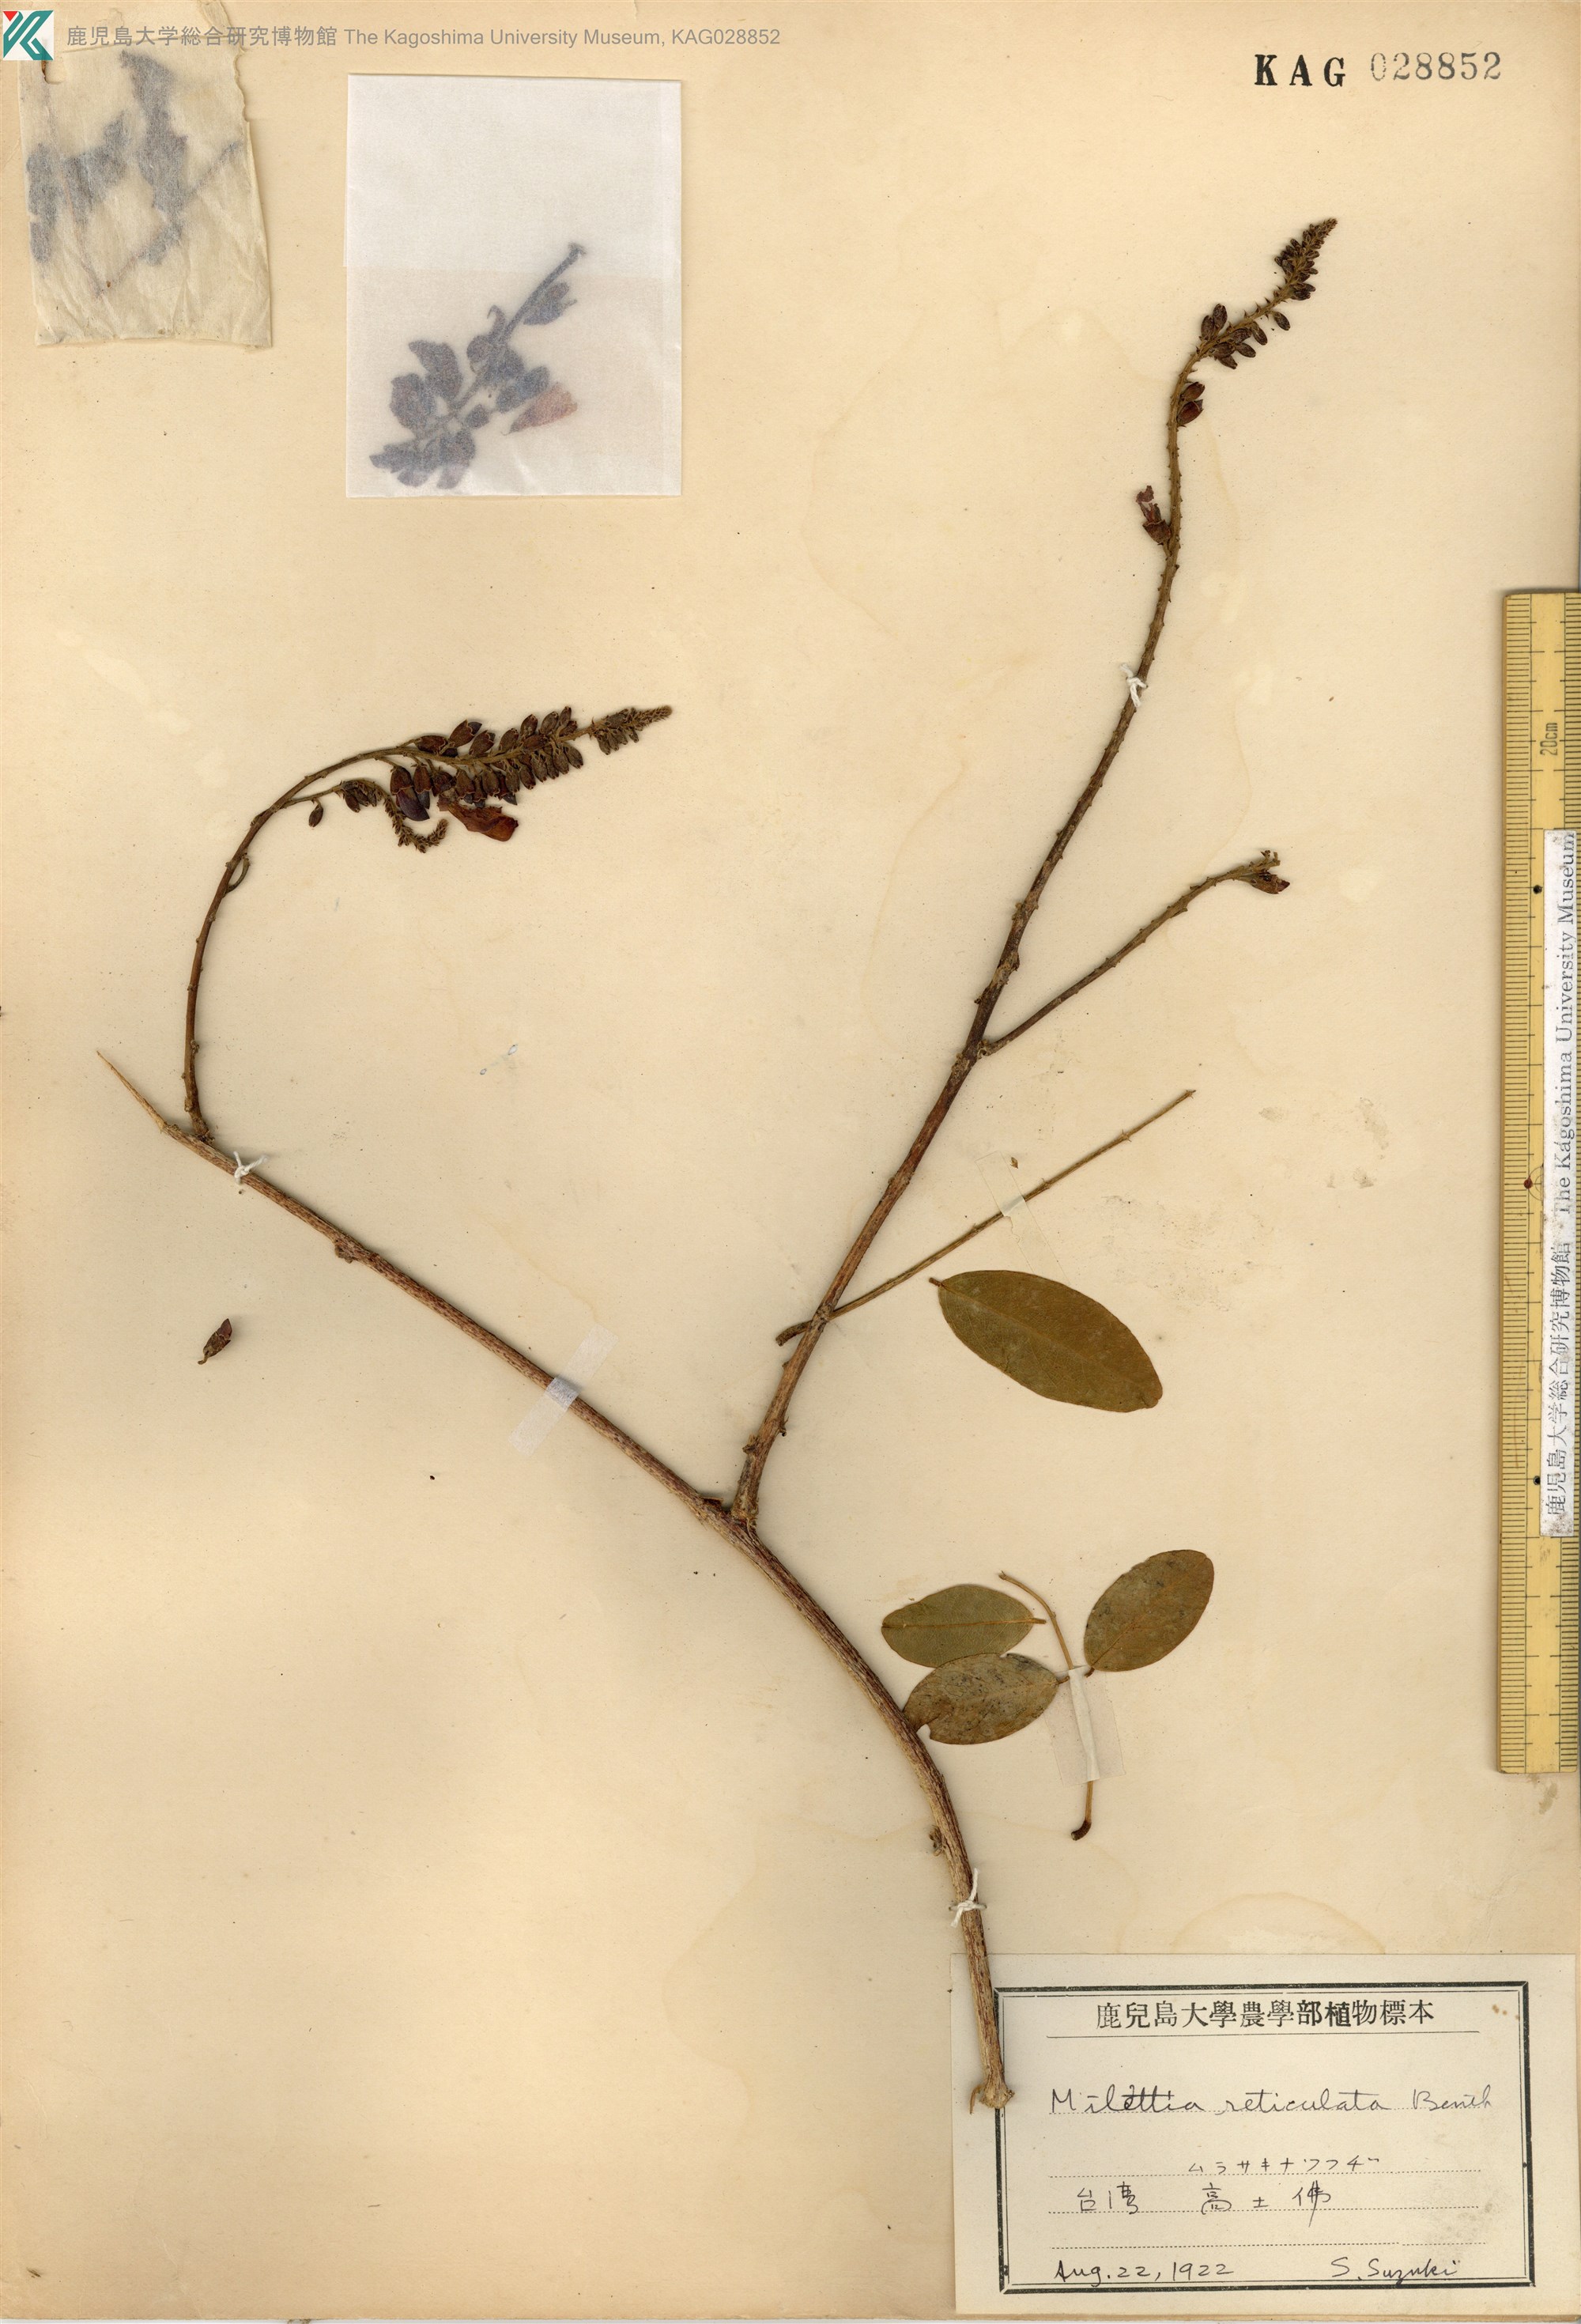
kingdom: Plantae
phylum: Tracheophyta
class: Magnoliopsida
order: Fabales
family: Fabaceae
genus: Wisteriopsis
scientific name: Wisteriopsis reticulata
